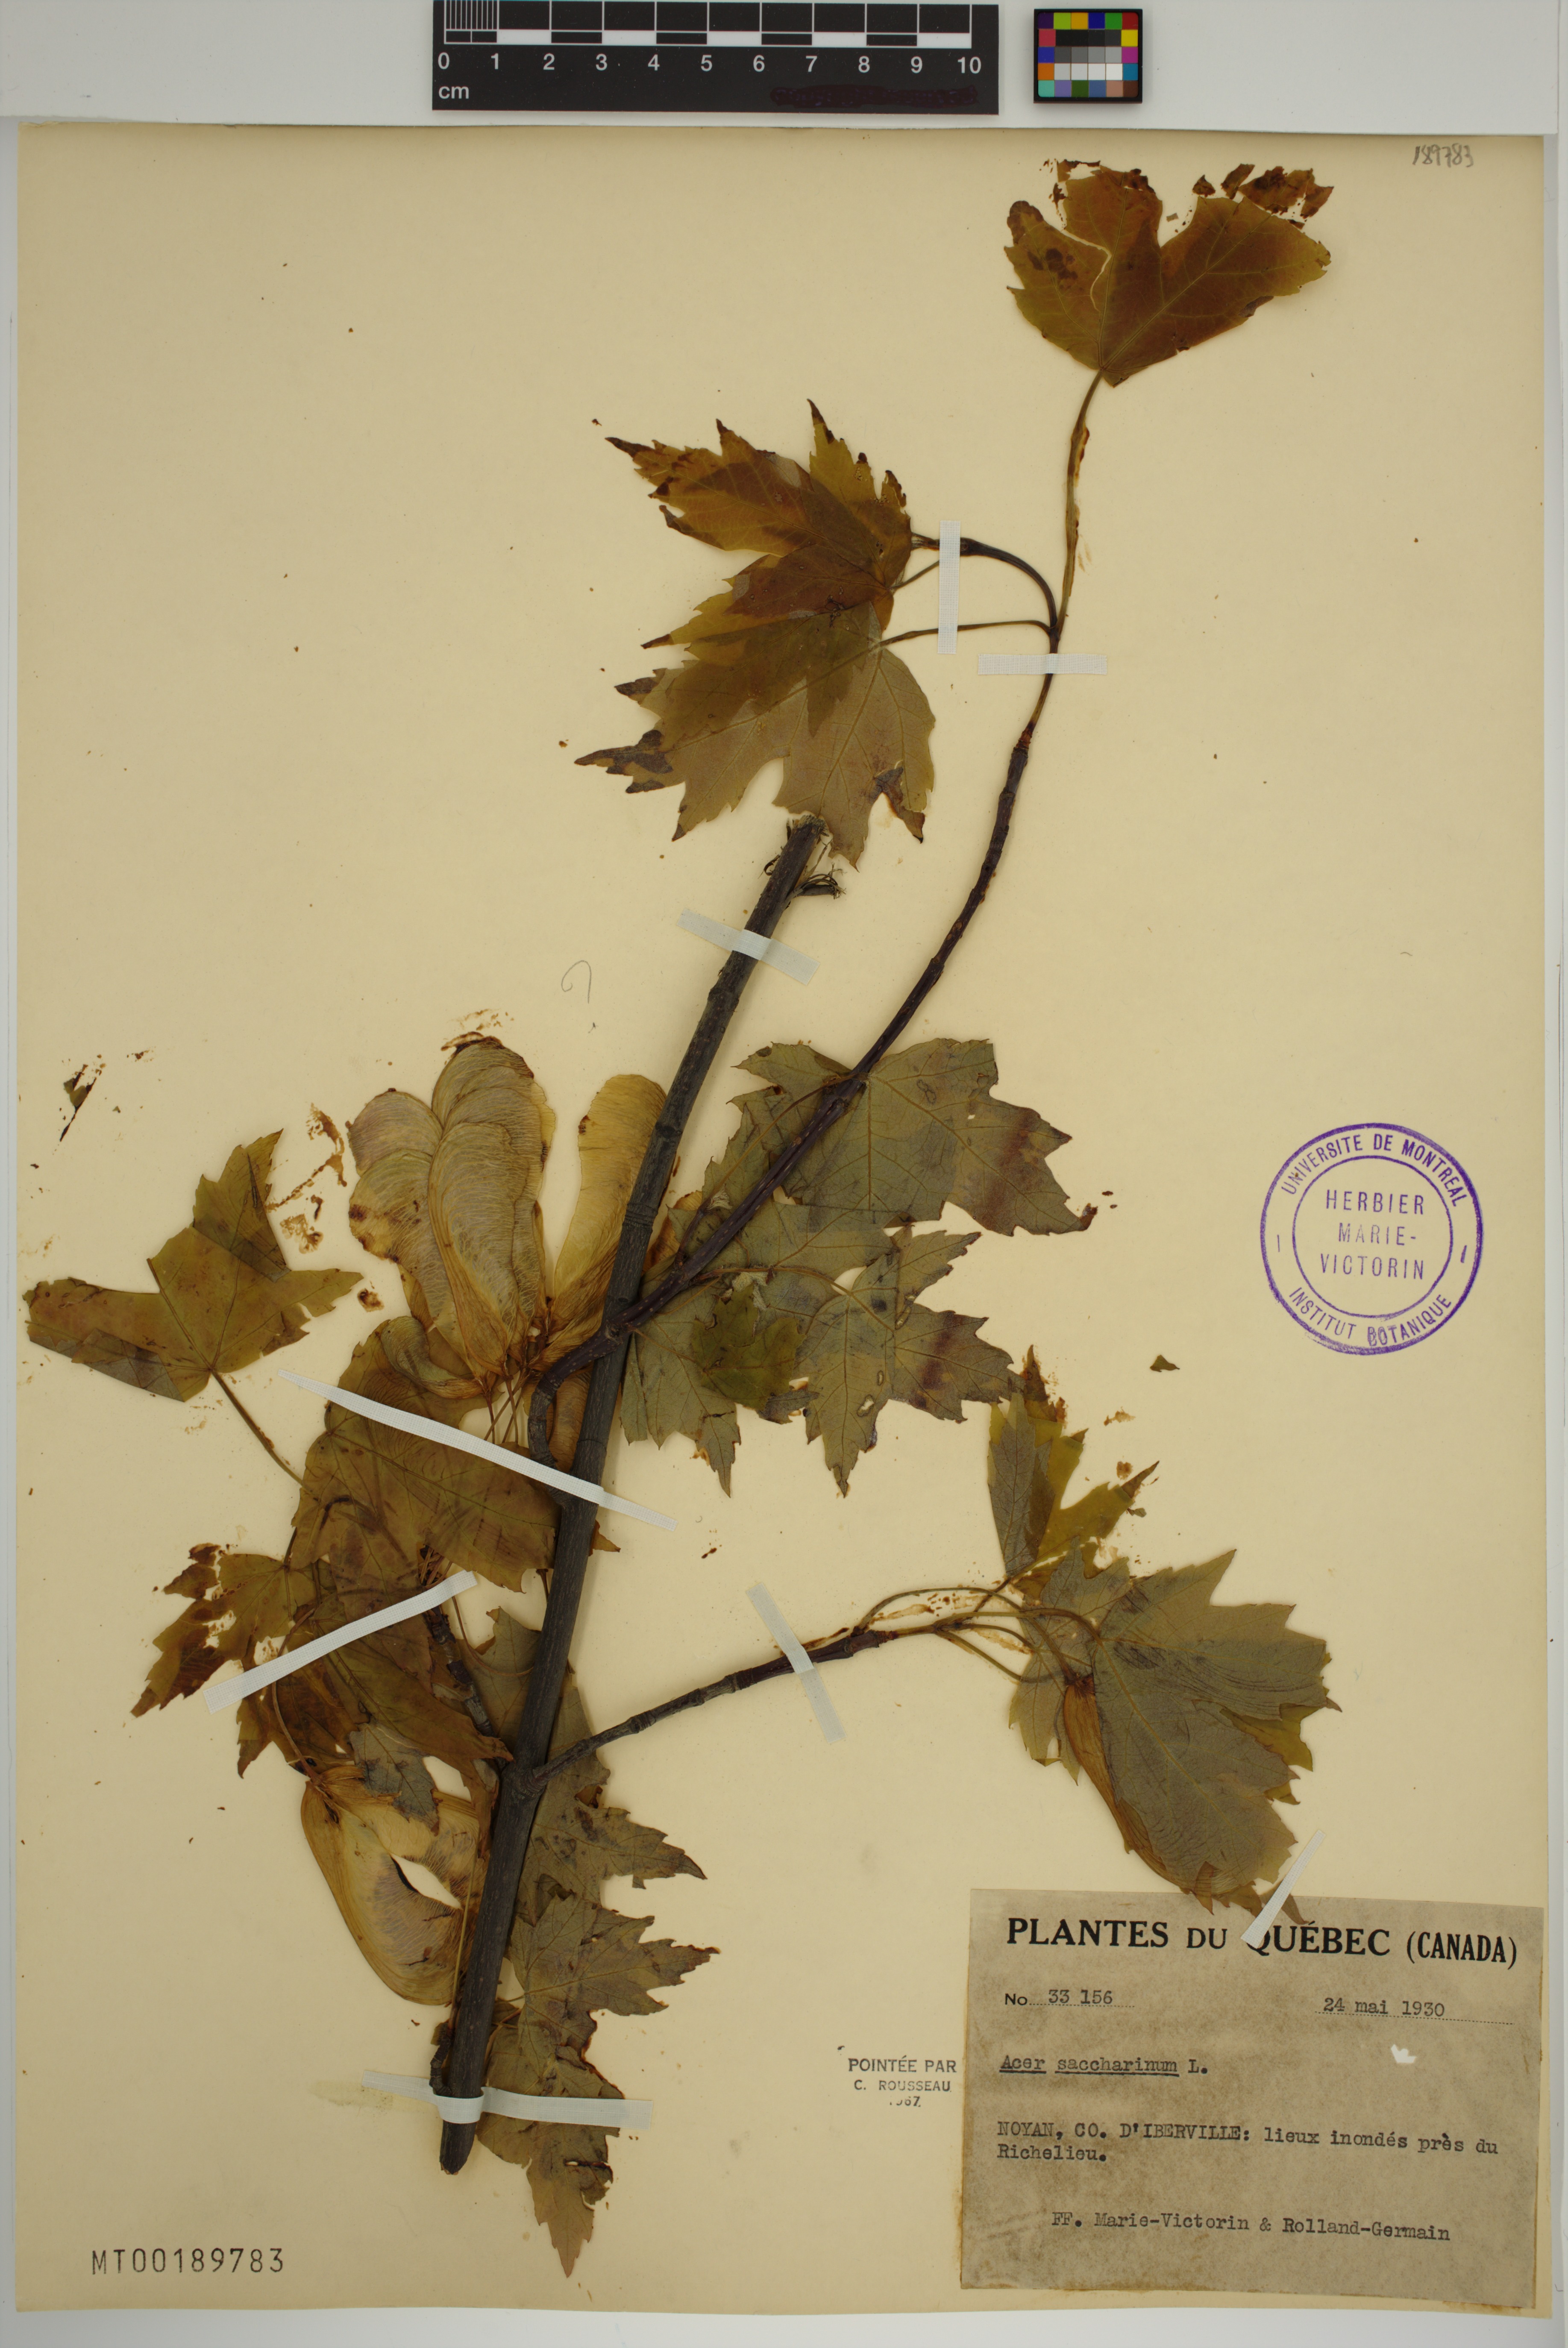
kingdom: Plantae
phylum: Tracheophyta
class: Magnoliopsida
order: Sapindales
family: Sapindaceae
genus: Acer
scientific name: Acer saccharinum
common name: Silver maple
